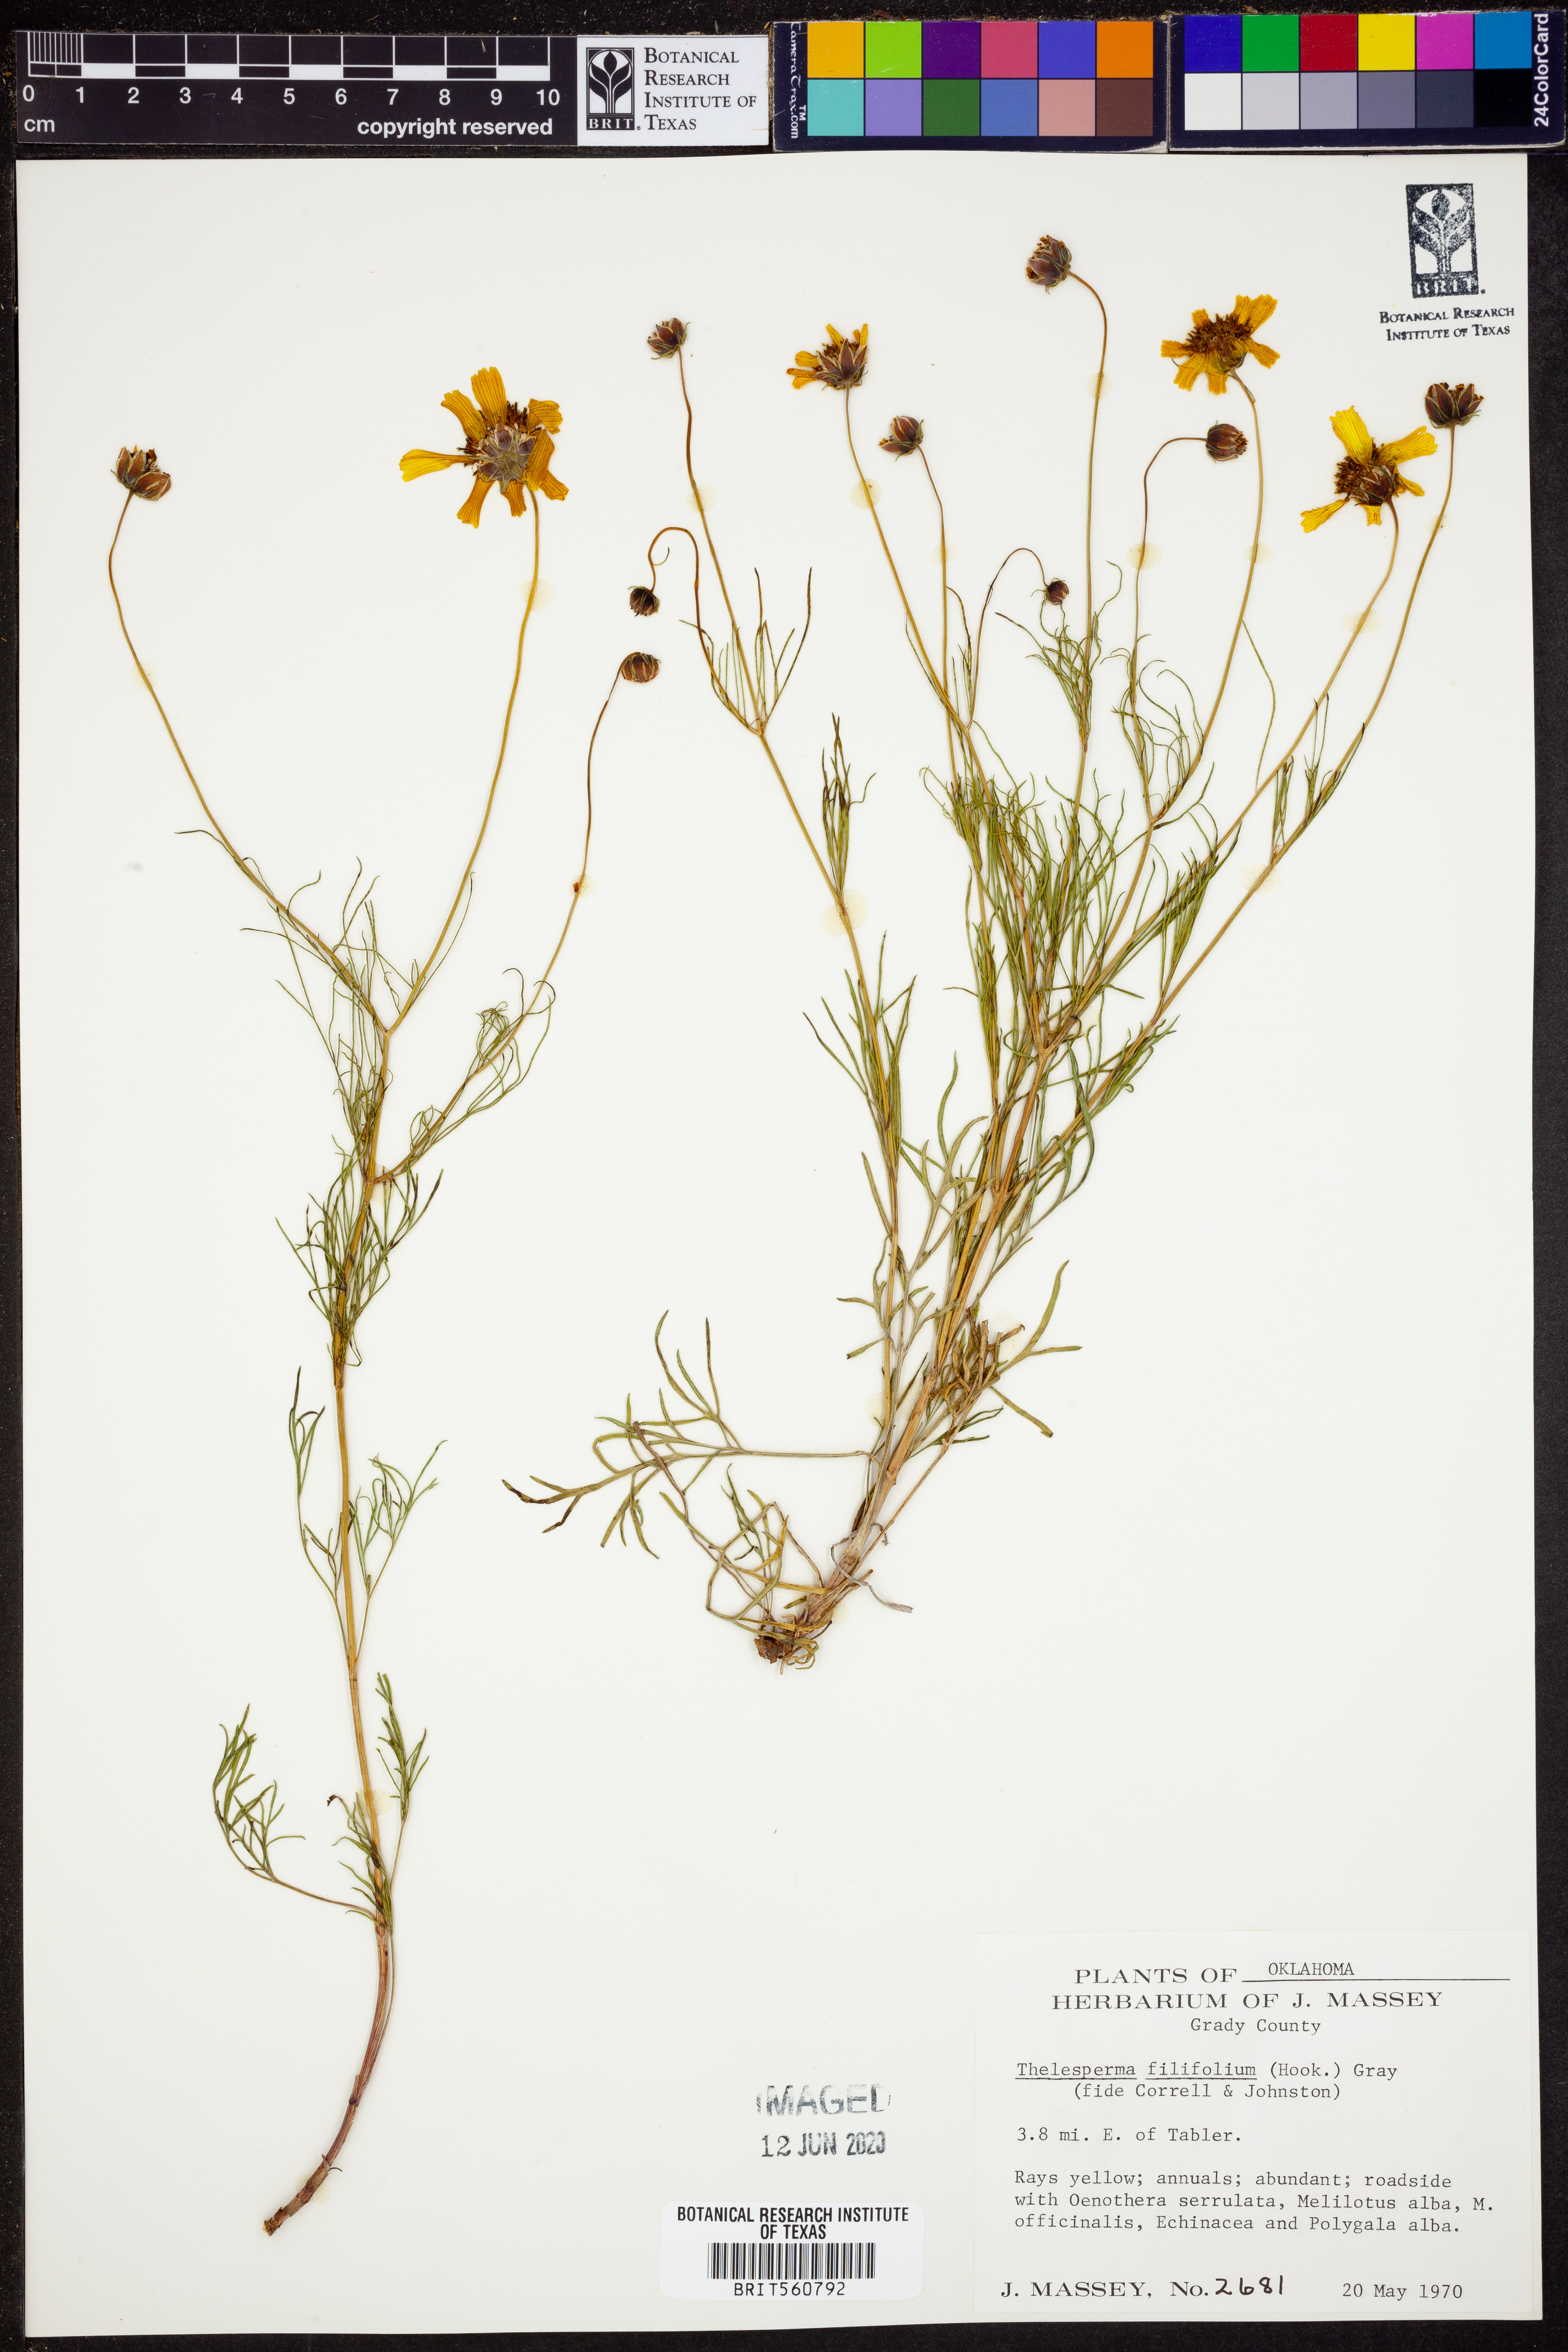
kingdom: Plantae
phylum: Tracheophyta
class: Magnoliopsida
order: Asterales
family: Asteraceae
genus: Thelesperma
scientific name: Thelesperma filifolium
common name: Stiff greenthread
